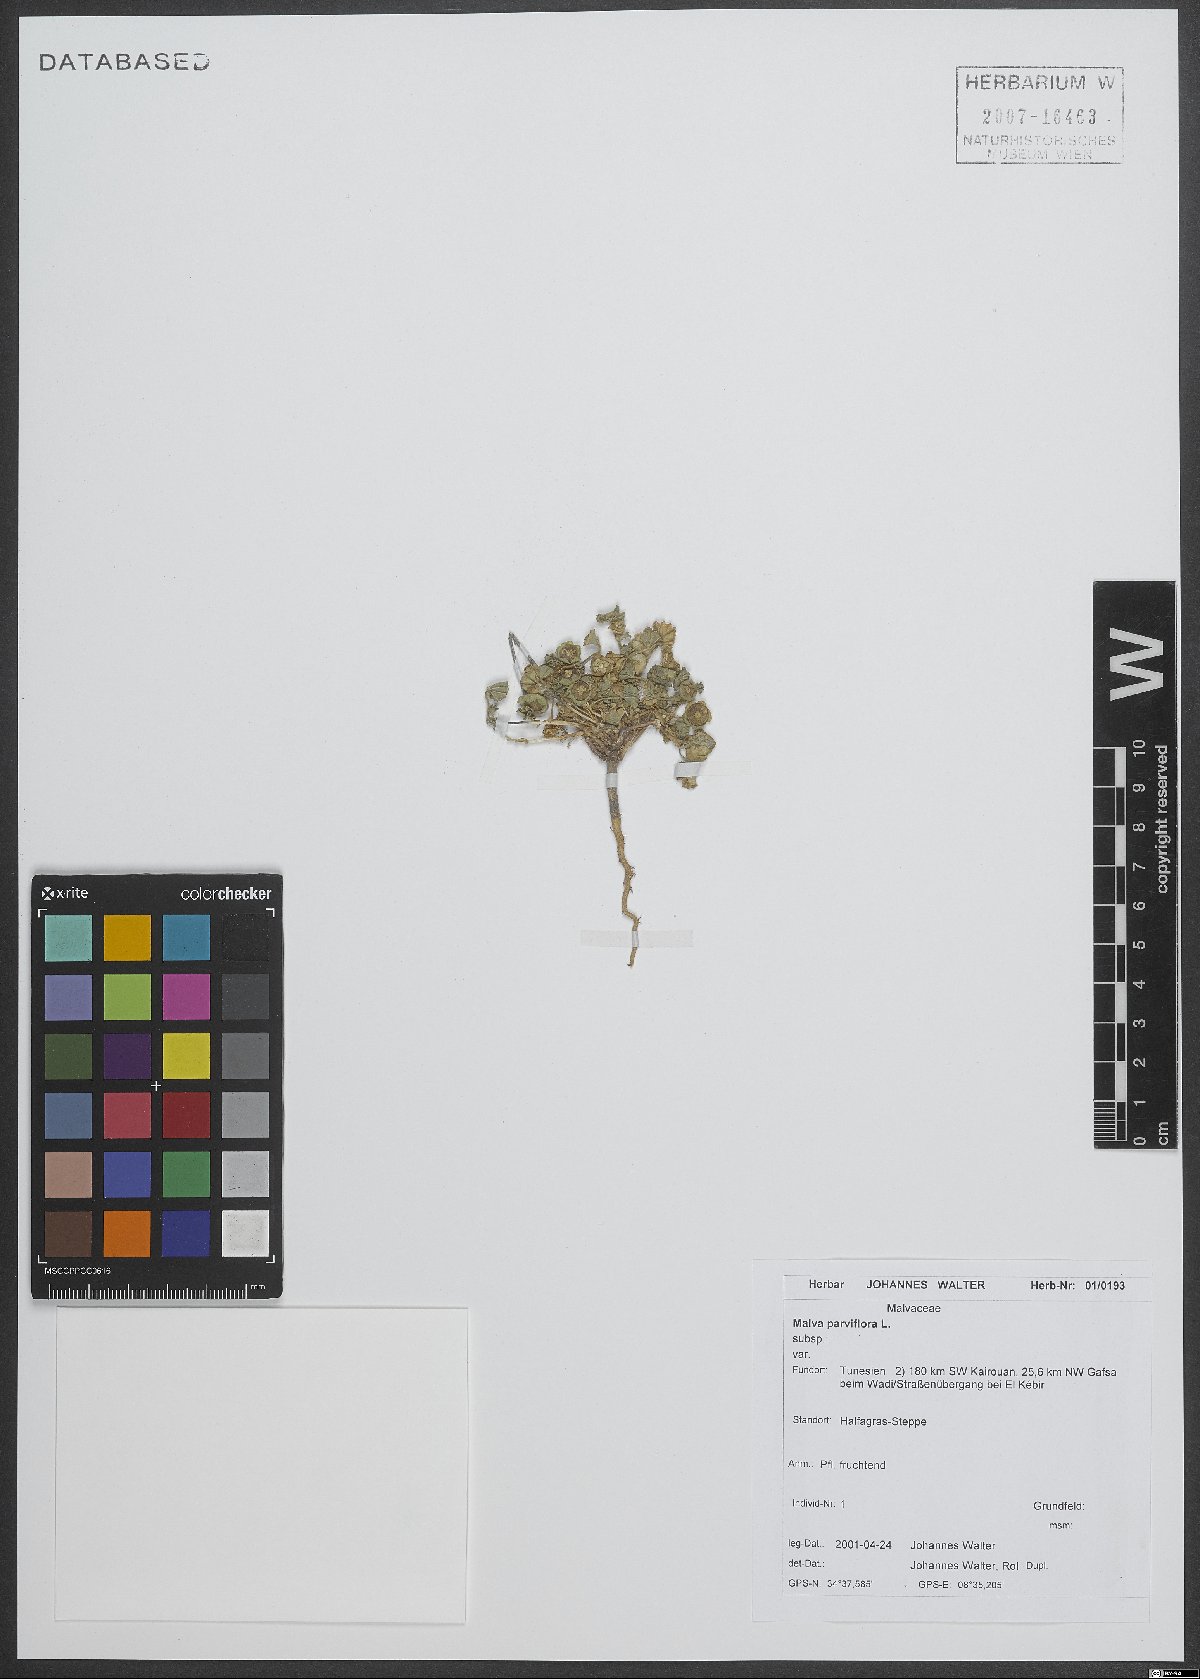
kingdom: Plantae
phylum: Tracheophyta
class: Magnoliopsida
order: Malvales
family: Malvaceae
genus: Malva
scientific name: Malva parviflora
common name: Least mallow
